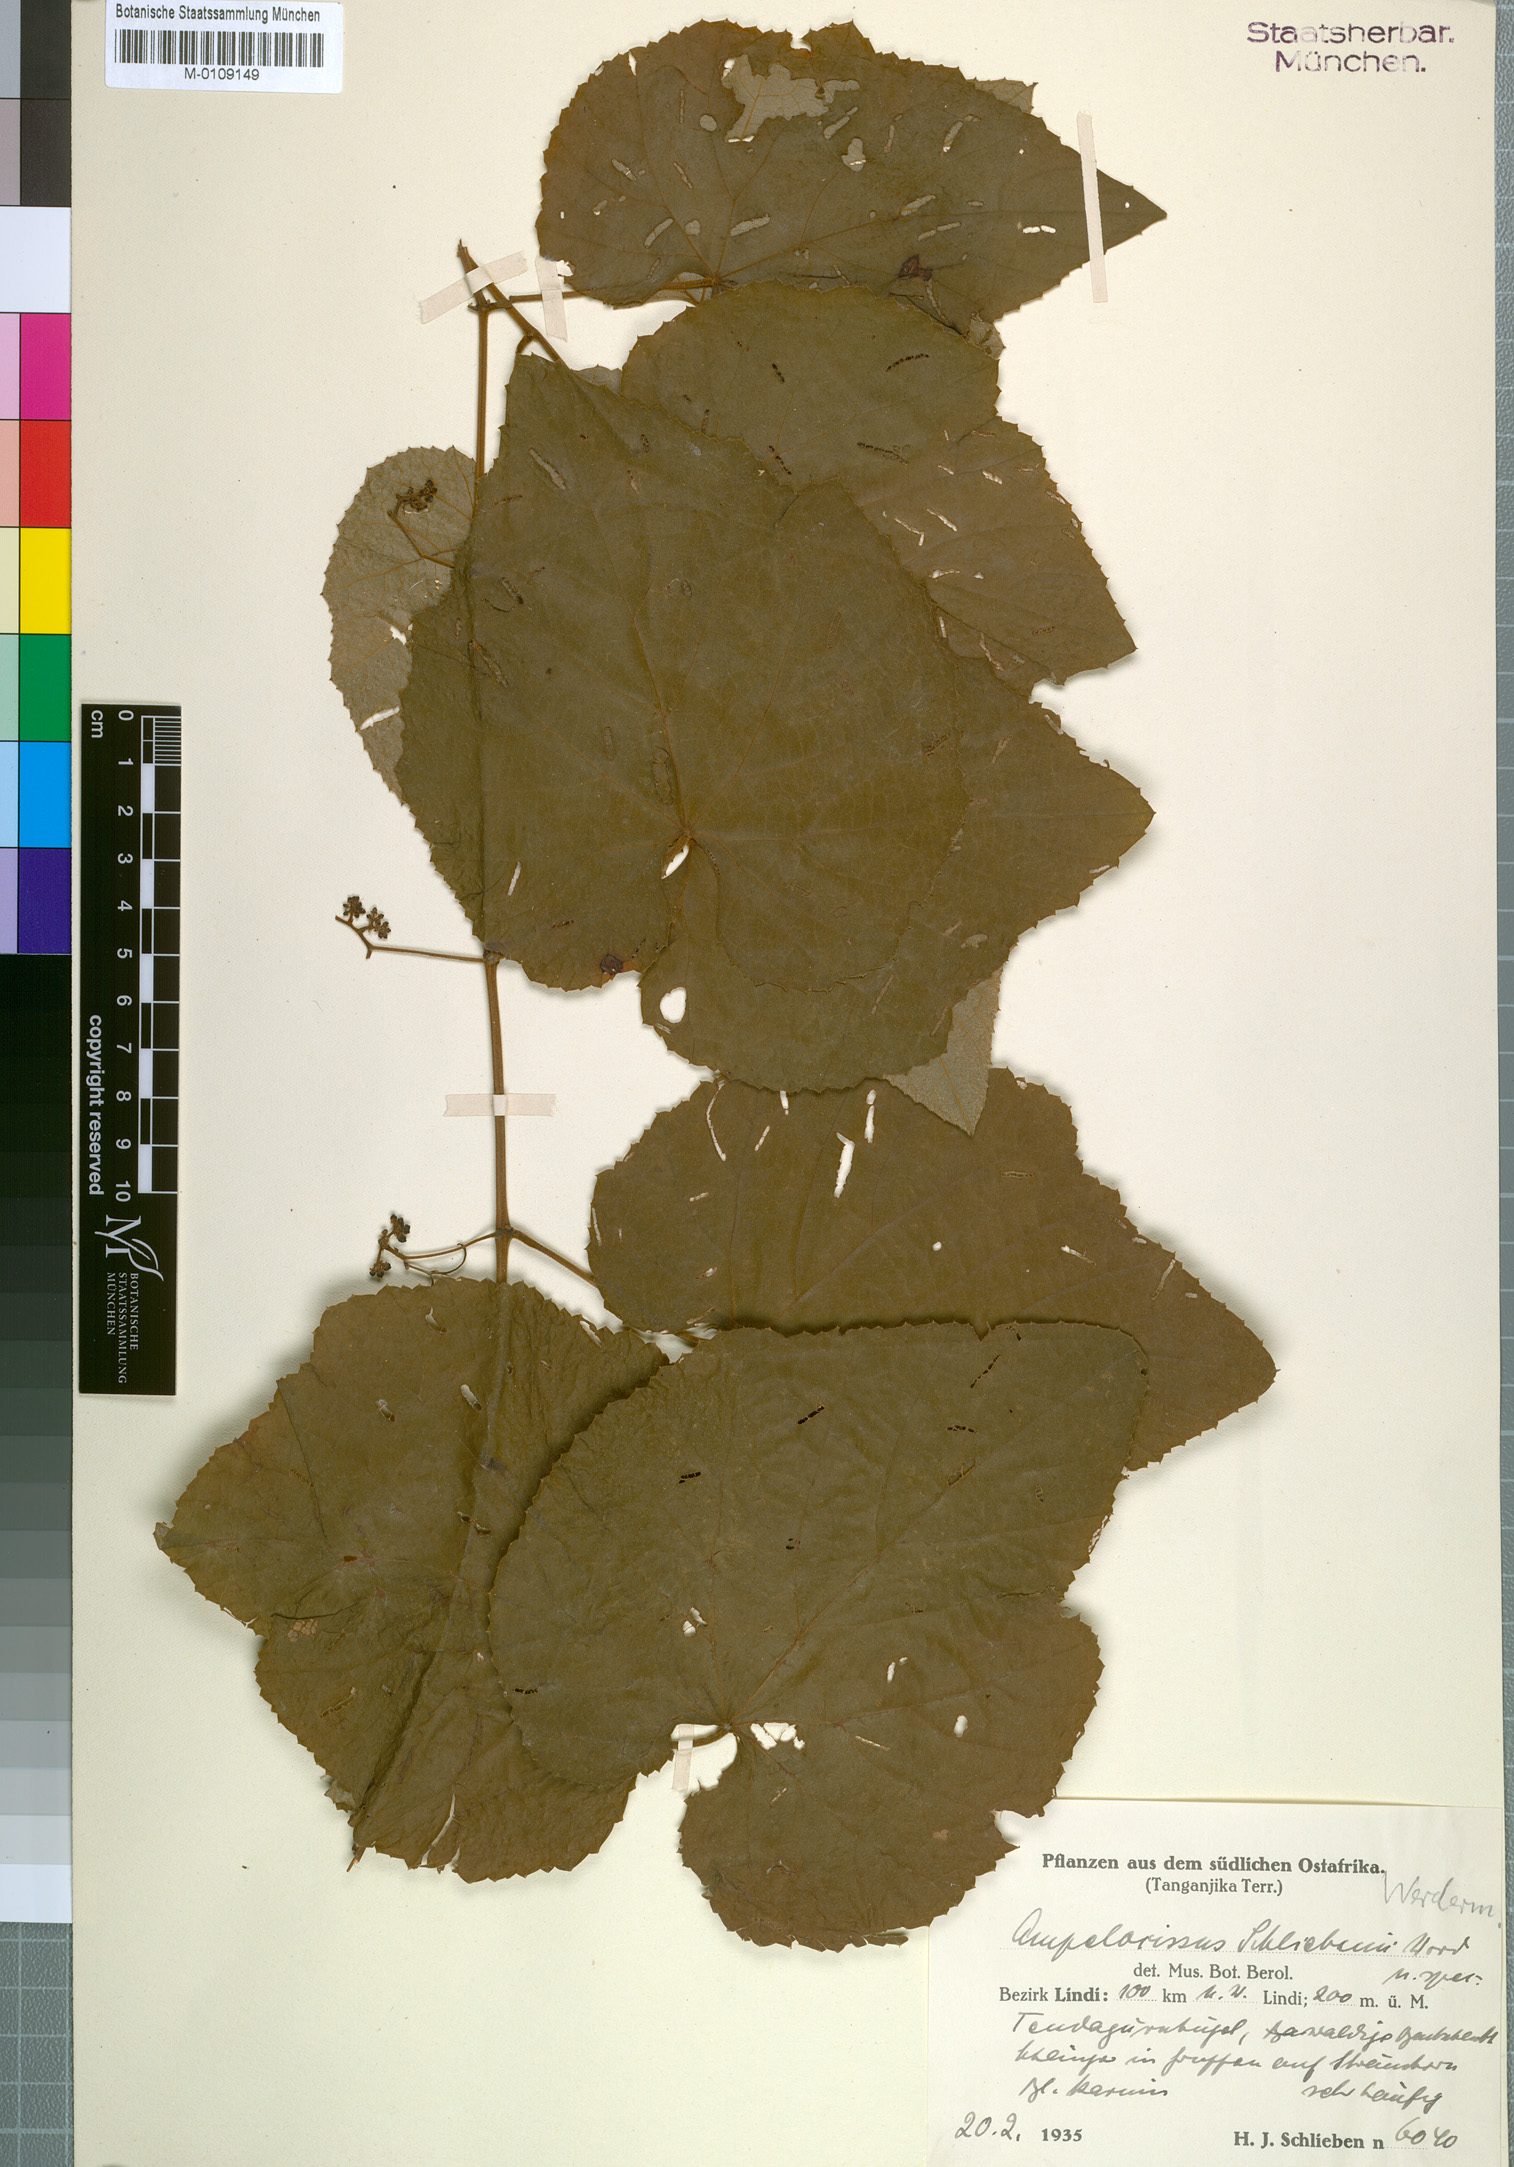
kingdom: Plantae
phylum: Tracheophyta
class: Magnoliopsida
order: Vitales
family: Vitaceae
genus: Ampelocissus
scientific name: Ampelocissus africana
